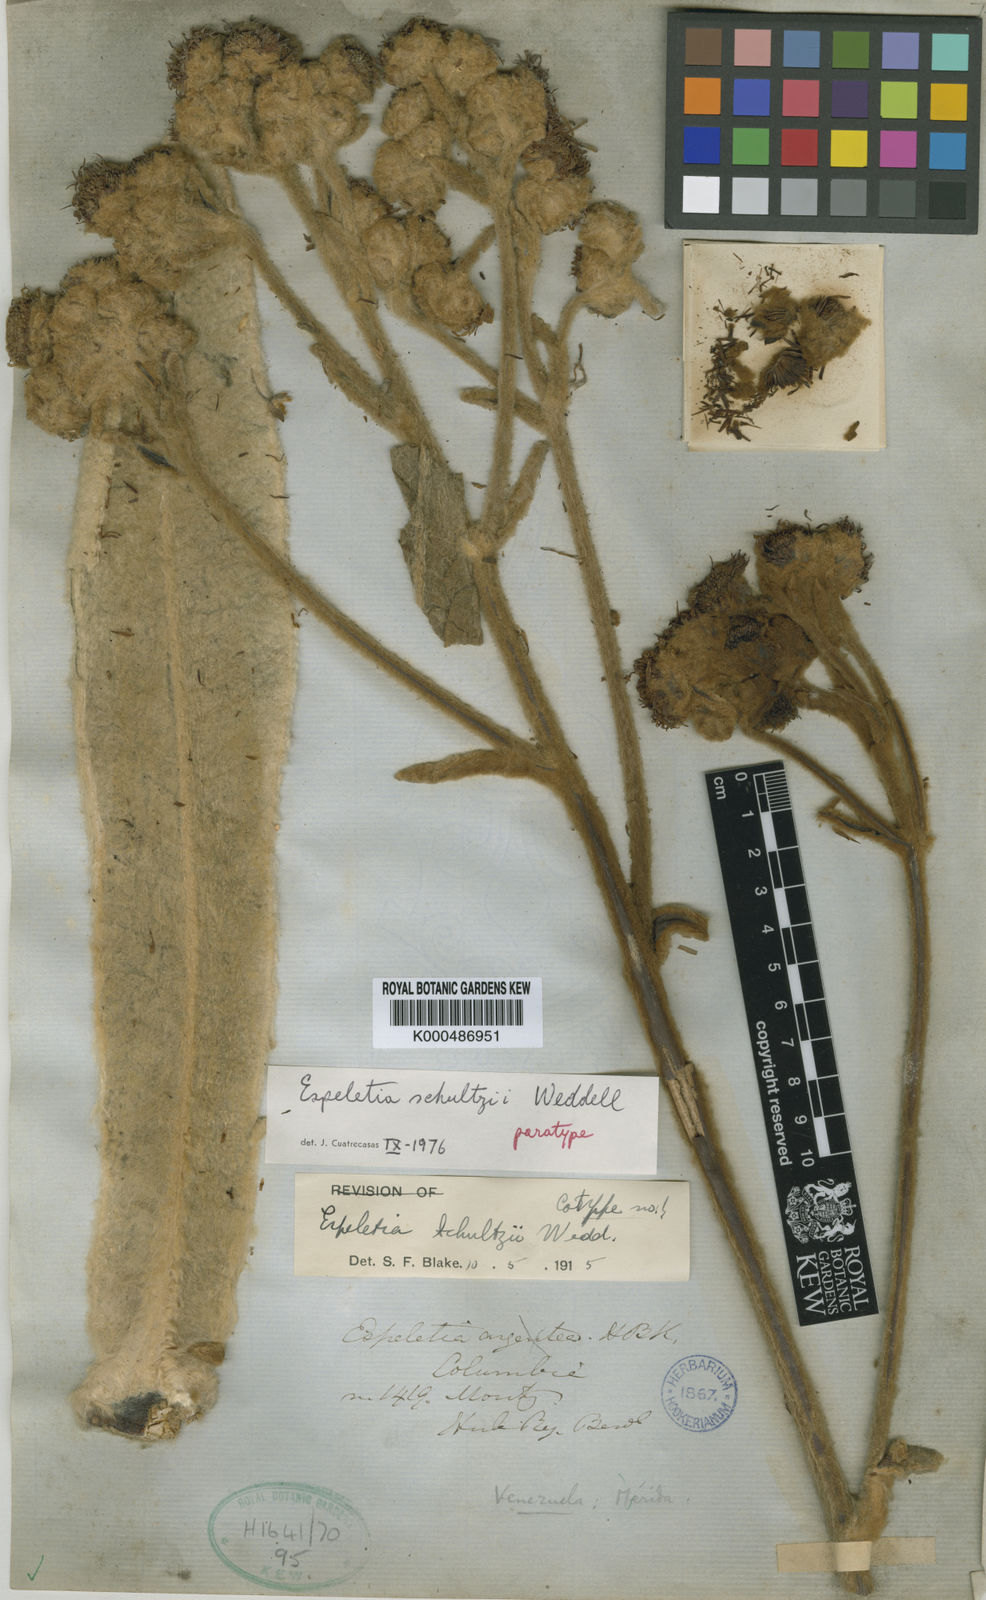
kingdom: Plantae
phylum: Tracheophyta
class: Magnoliopsida
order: Asterales
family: Asteraceae
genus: Espeletia
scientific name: Espeletia schultzii
